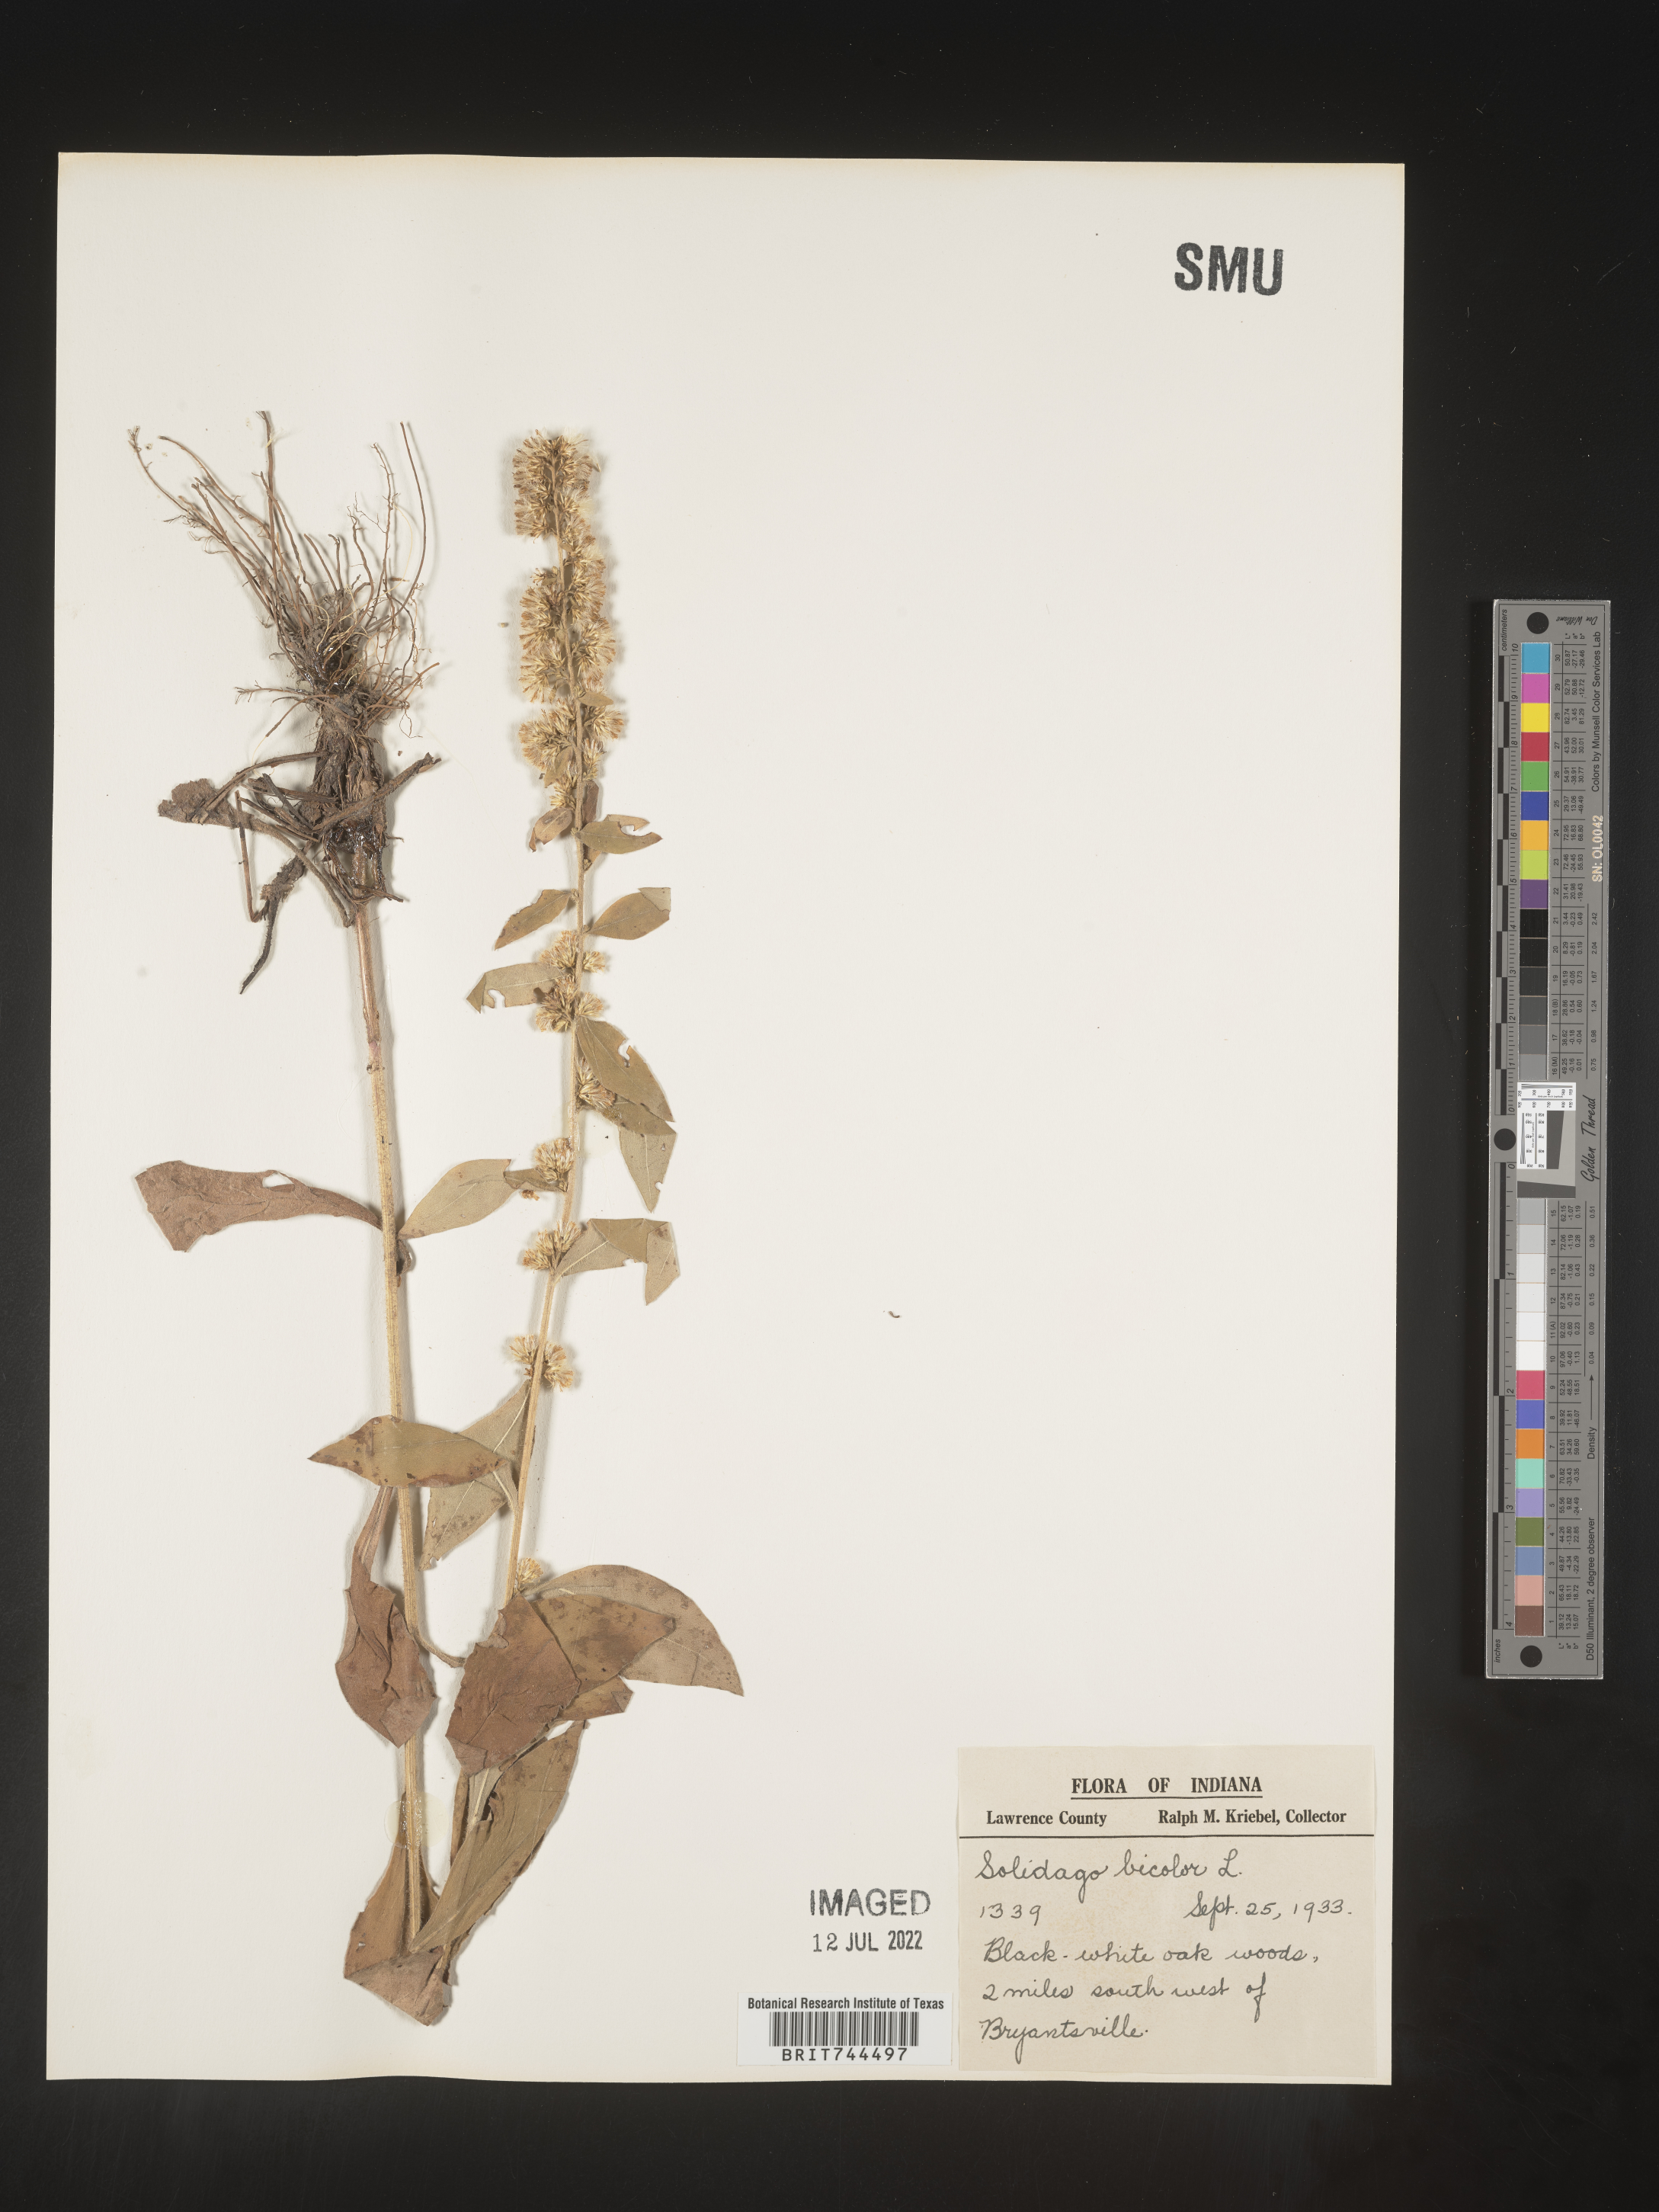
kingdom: Plantae
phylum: Tracheophyta
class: Magnoliopsida
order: Asterales
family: Asteraceae
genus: Solidago
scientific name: Solidago bicolor
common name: Silverrod
